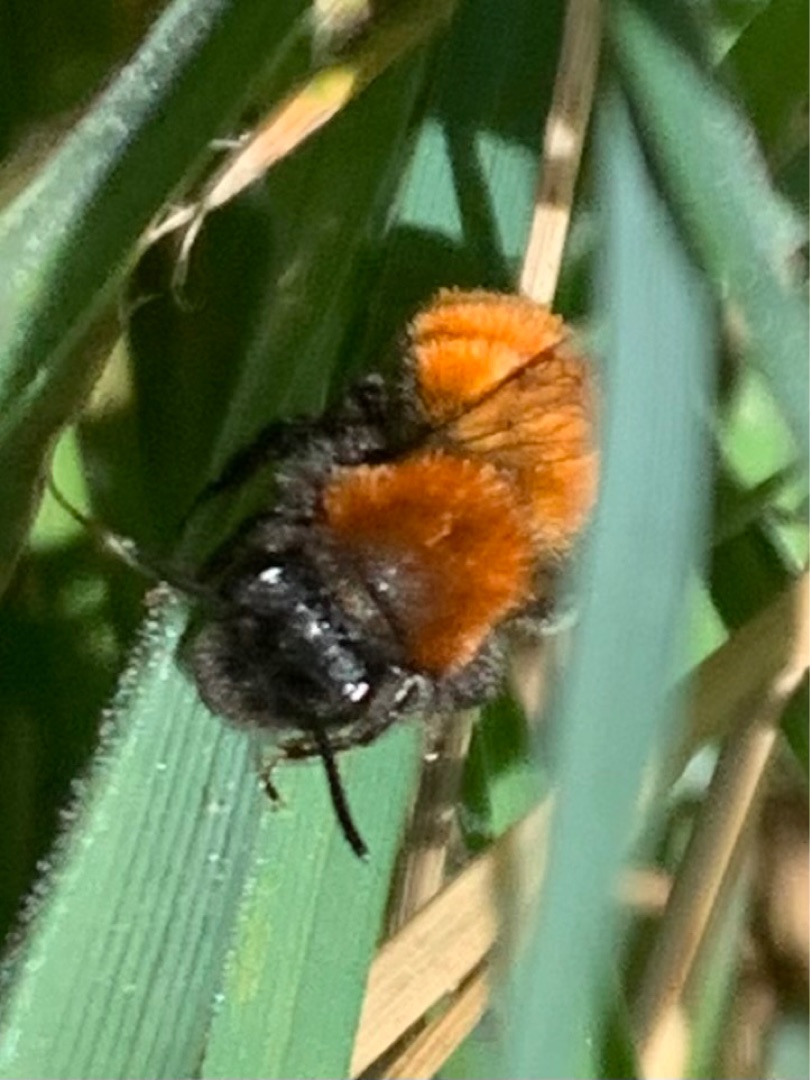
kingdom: Animalia
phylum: Arthropoda
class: Insecta
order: Hymenoptera
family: Andrenidae
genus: Andrena
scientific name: Andrena fulva
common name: Rødpelset jordbi
